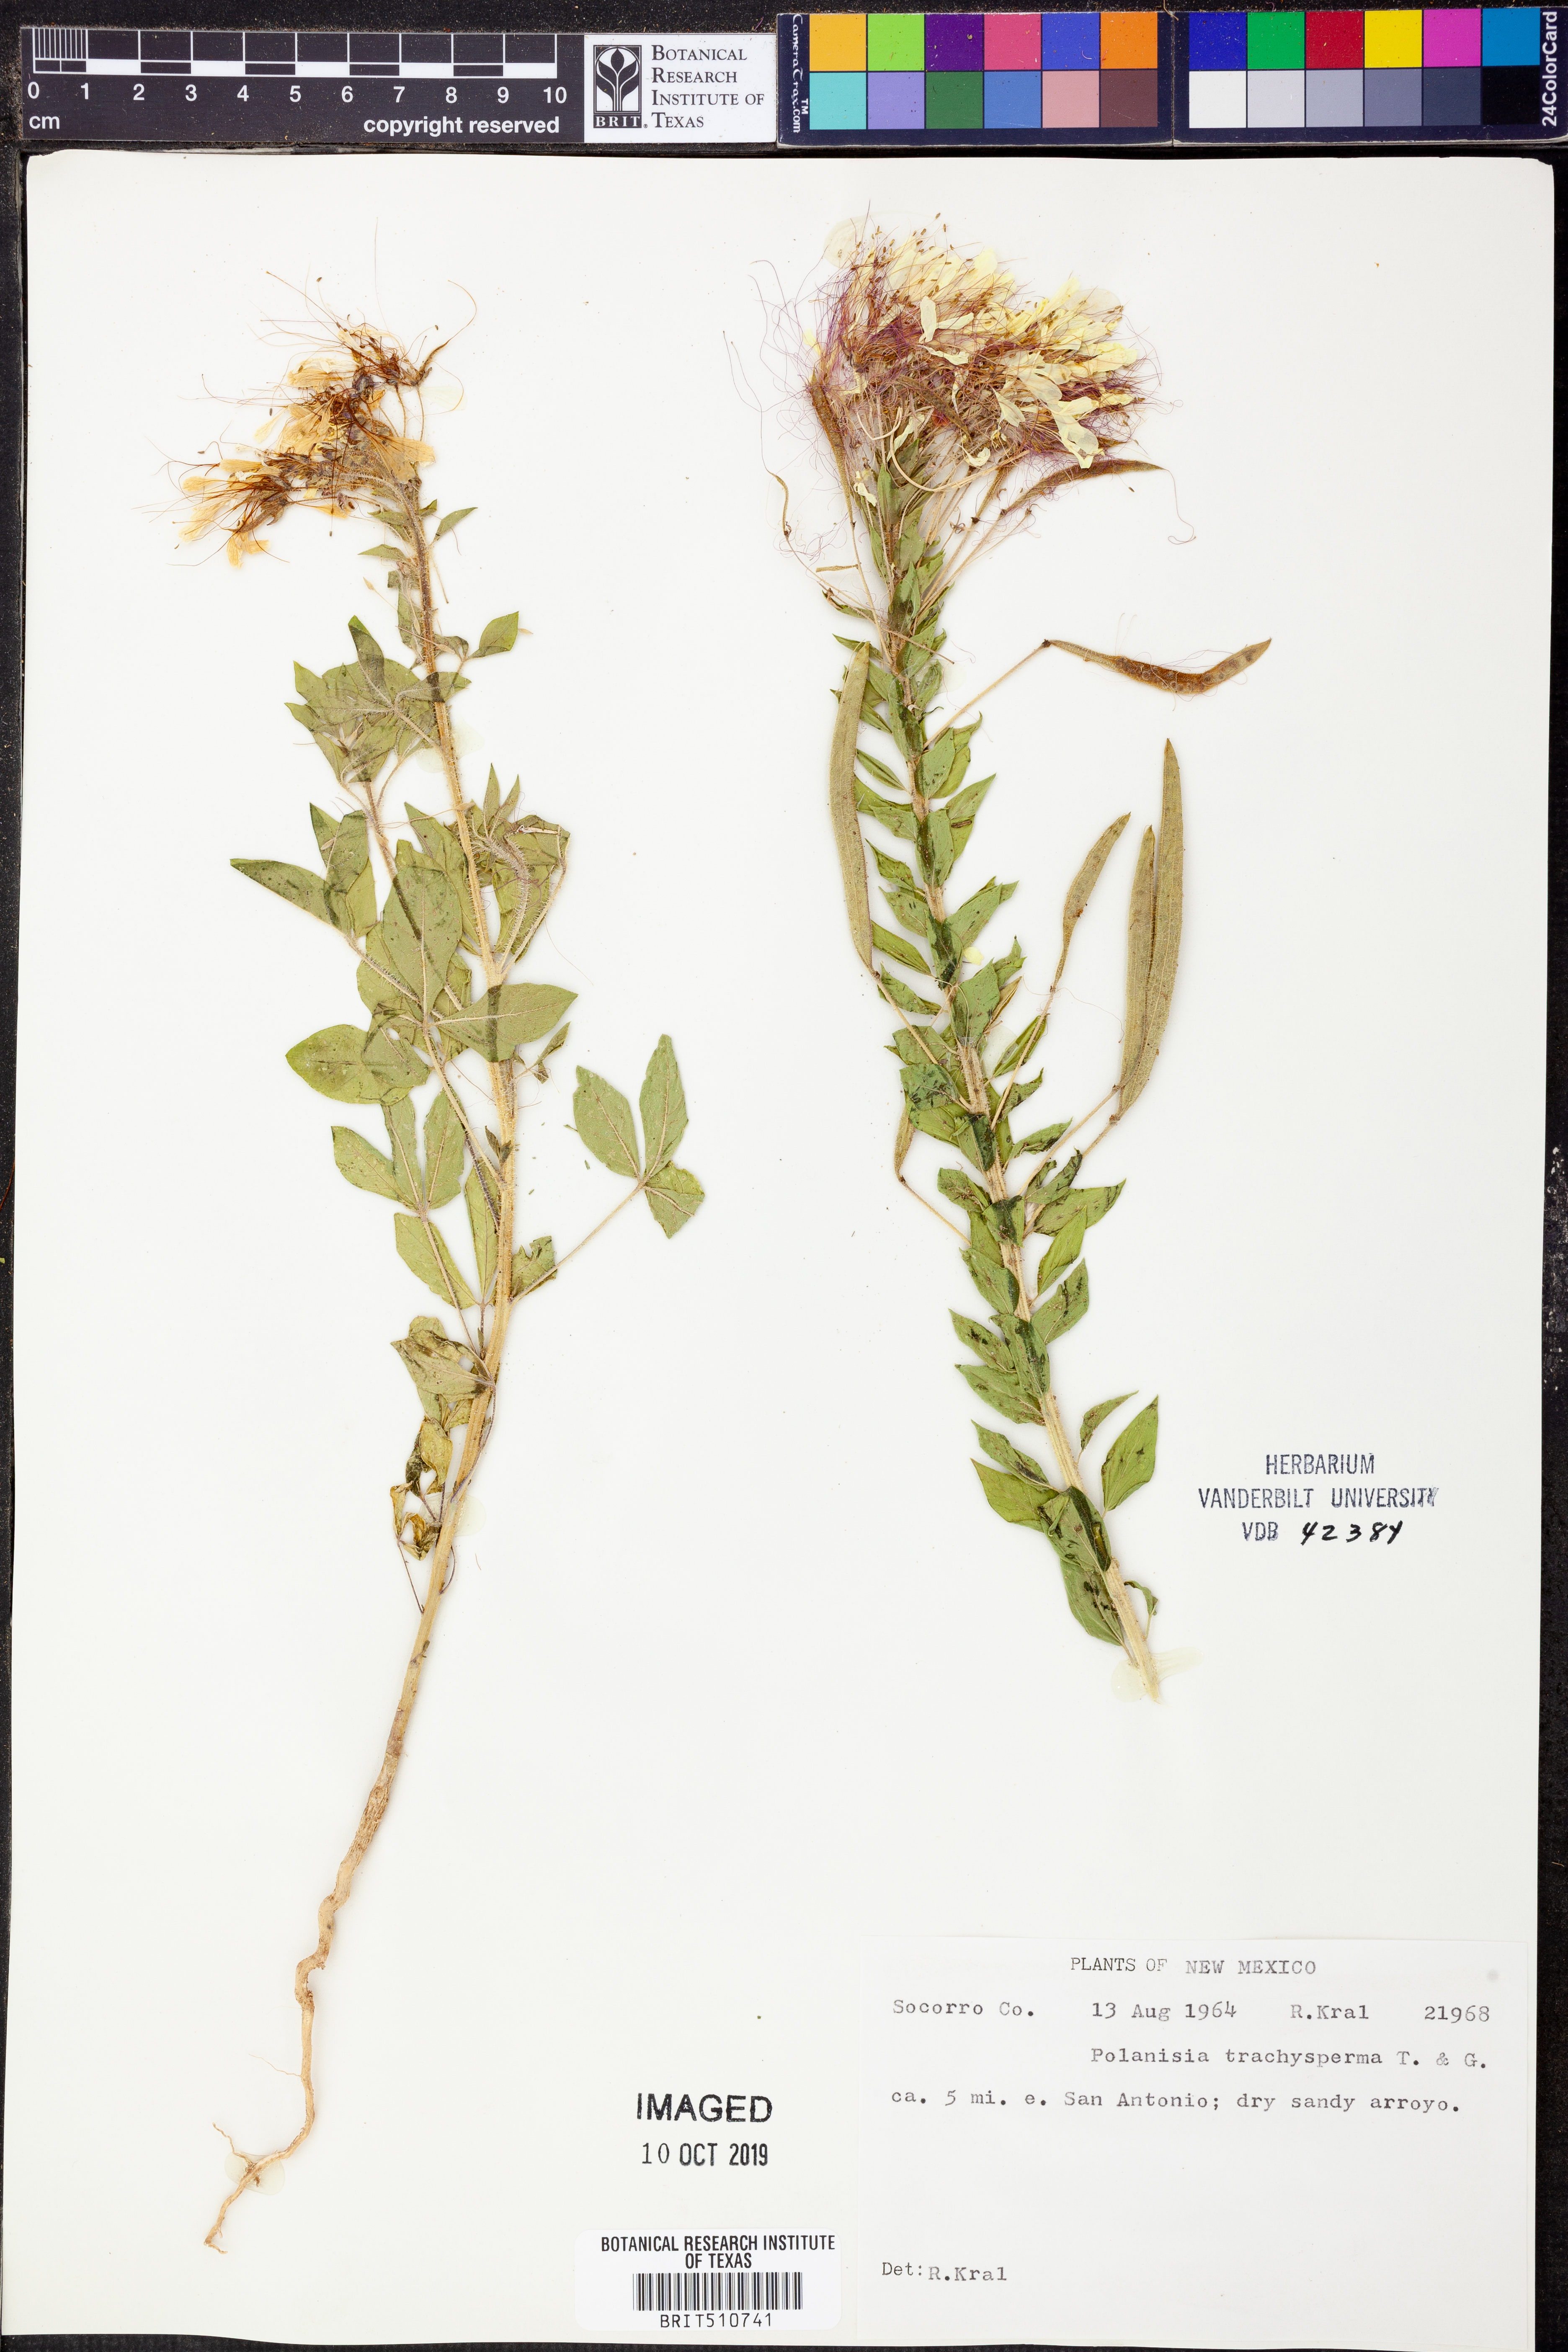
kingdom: Plantae
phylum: Tracheophyta
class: Magnoliopsida
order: Brassicales
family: Cleomaceae
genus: Polanisia
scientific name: Polanisia trachysperma
